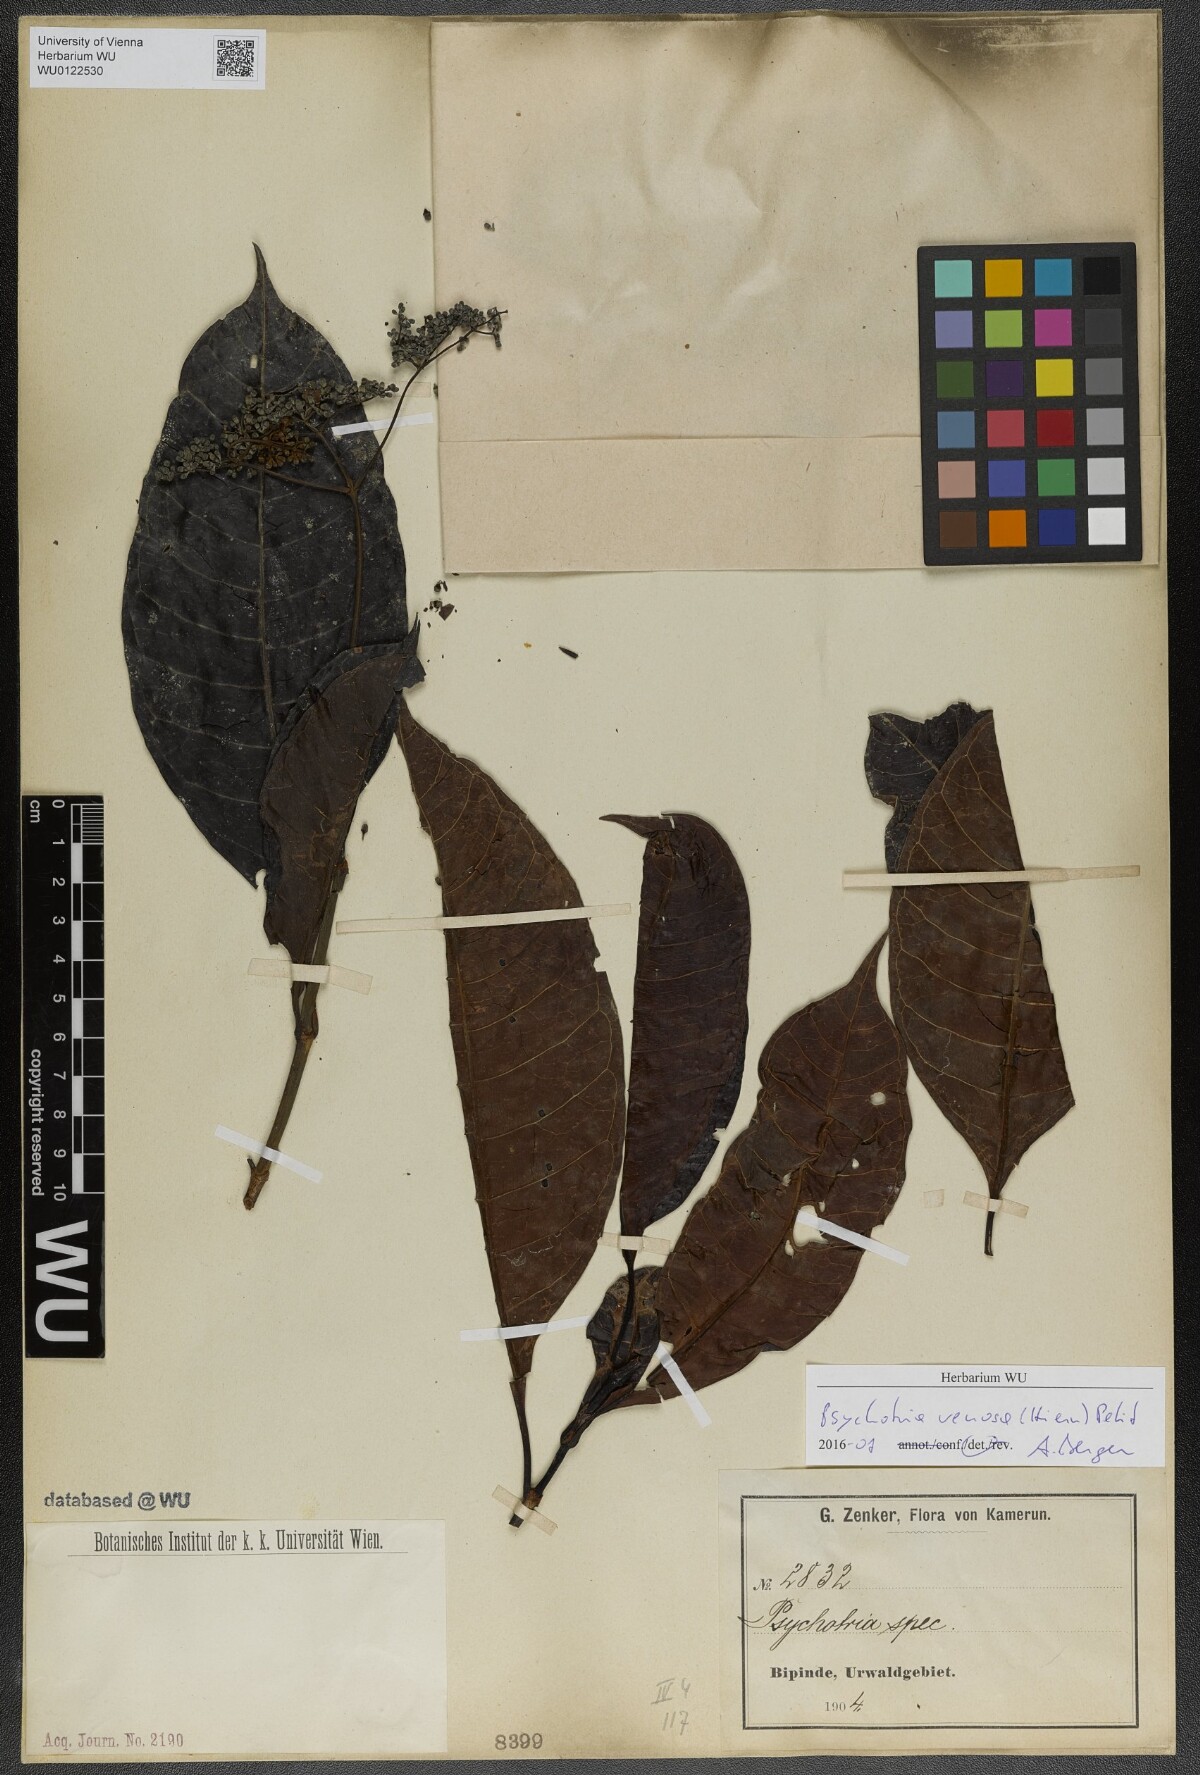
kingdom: Plantae
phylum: Tracheophyta
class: Magnoliopsida
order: Gentianales
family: Rubiaceae
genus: Psychotria
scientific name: Psychotria venosa
